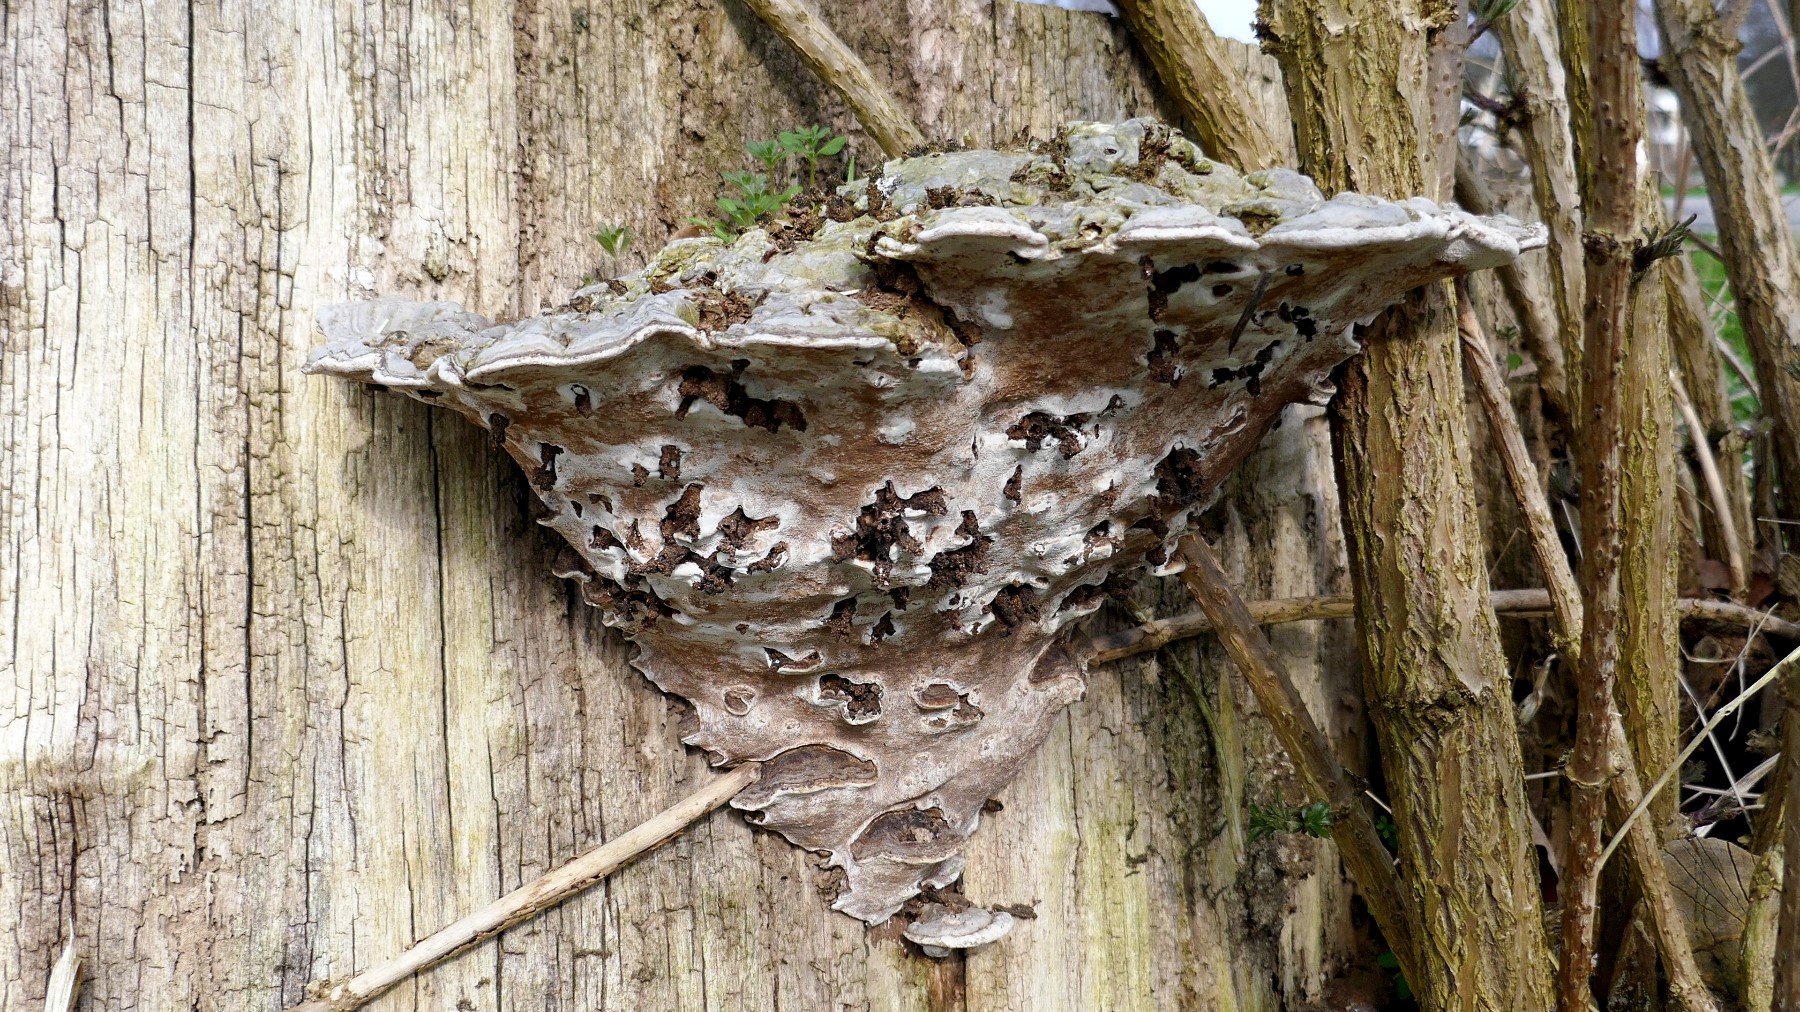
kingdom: Fungi
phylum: Basidiomycota
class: Agaricomycetes
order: Polyporales
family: Polyporaceae
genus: Ganoderma
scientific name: Ganoderma applanatum
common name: flad lakporesvamp
